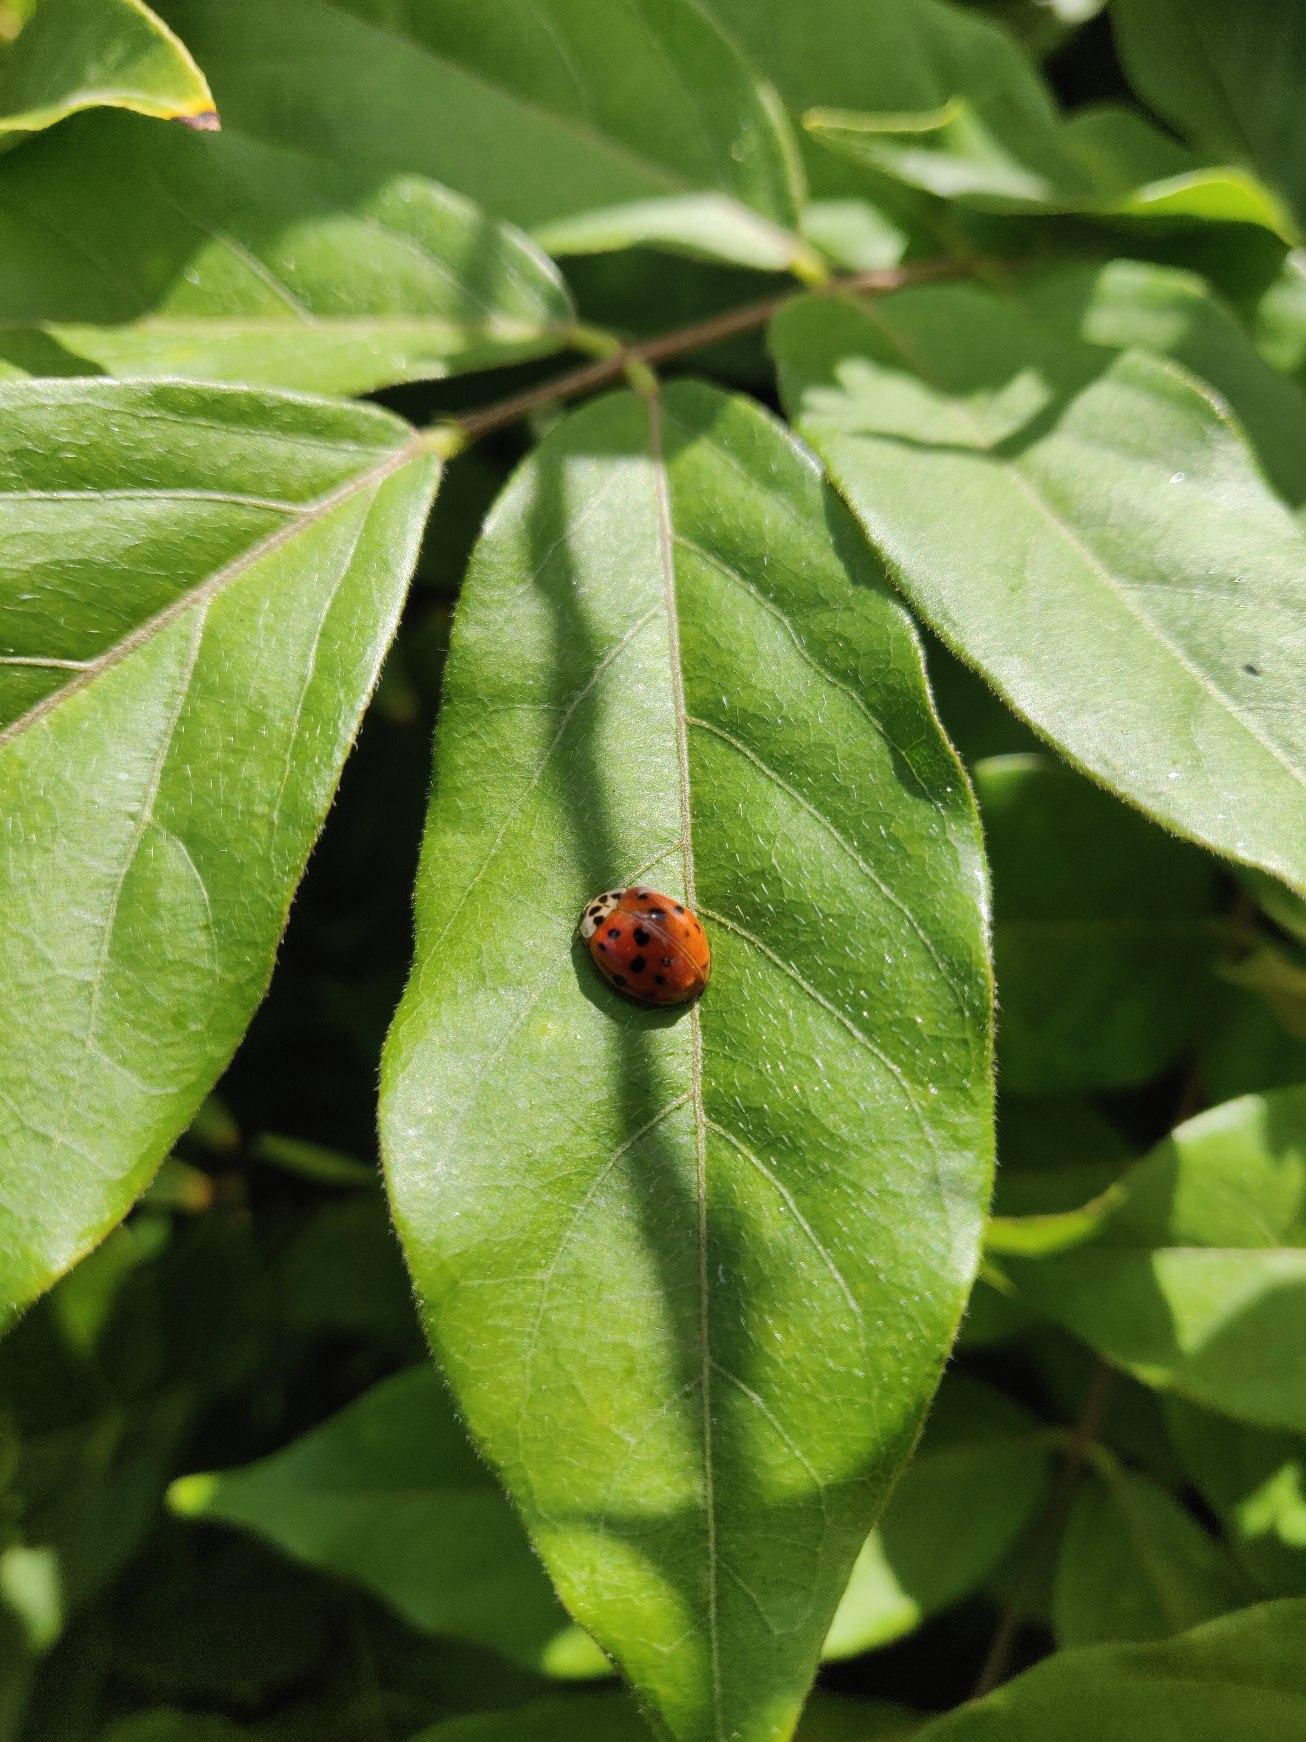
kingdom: Animalia
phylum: Arthropoda
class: Insecta
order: Coleoptera
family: Coccinellidae
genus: Harmonia
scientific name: Harmonia axyridis
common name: Harlekinmariehøne
